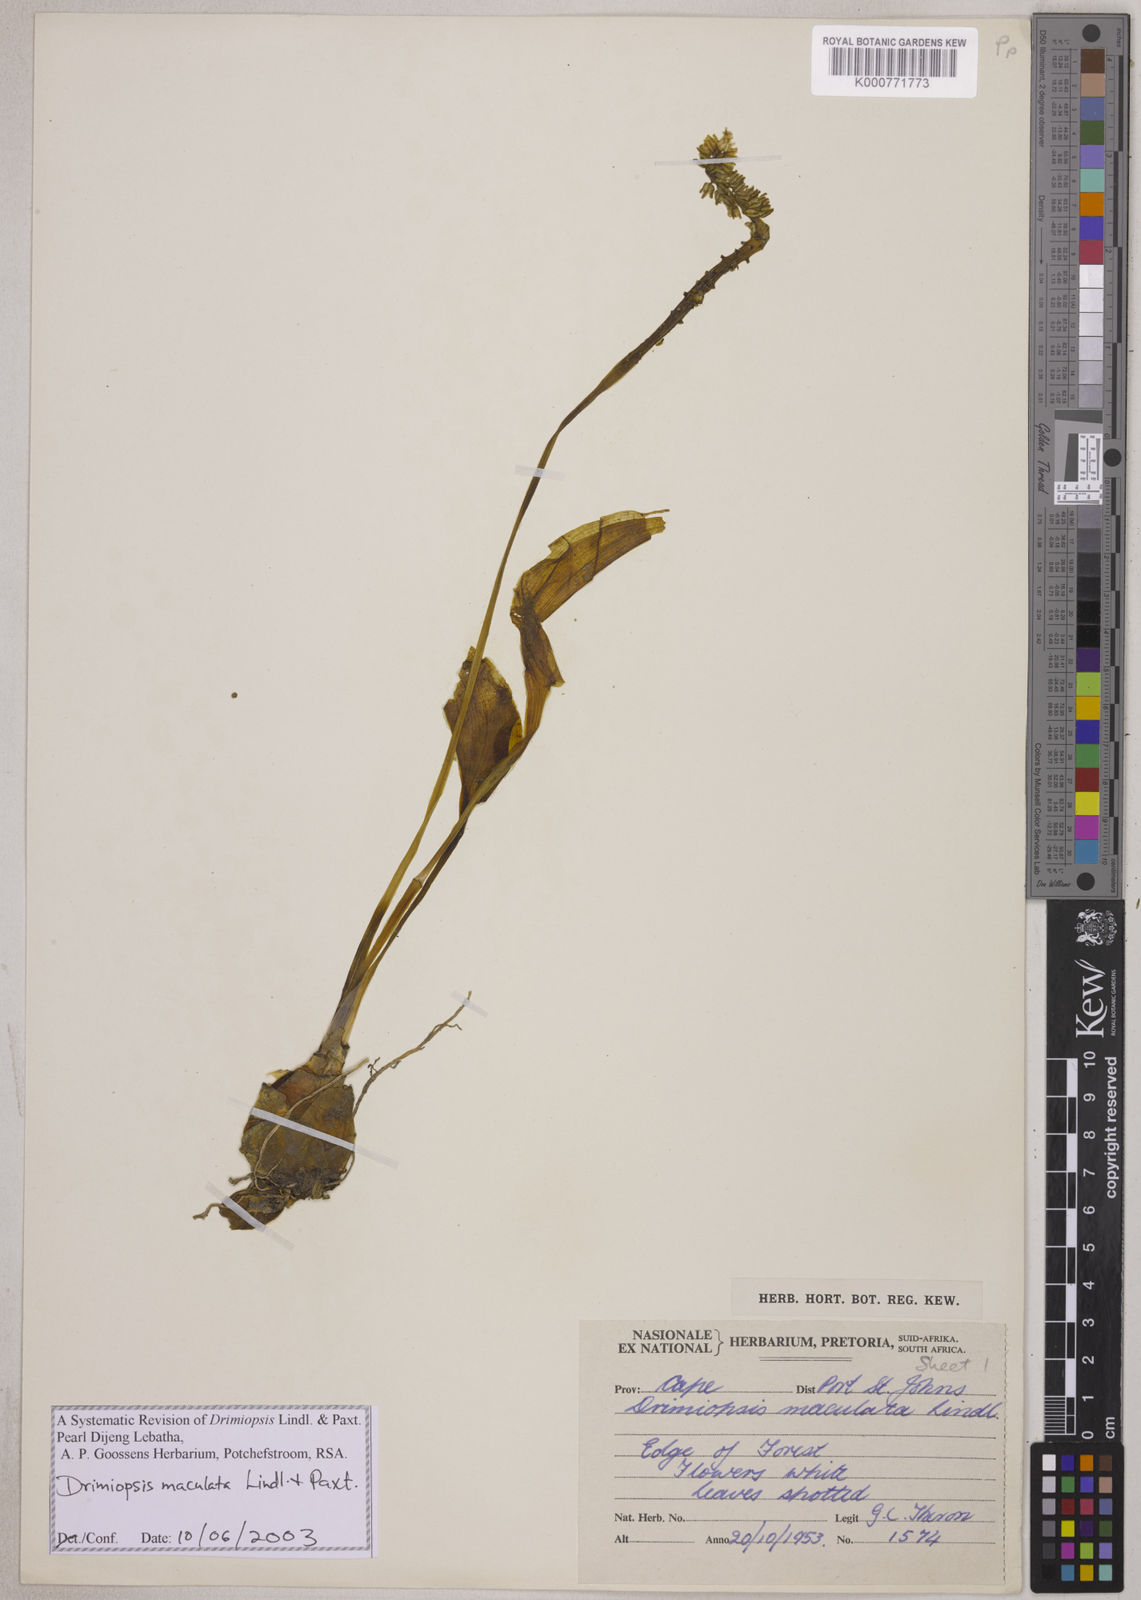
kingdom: Plantae
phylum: Tracheophyta
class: Liliopsida
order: Asparagales
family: Asparagaceae
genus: Drimiopsis
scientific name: Drimiopsis maculata
